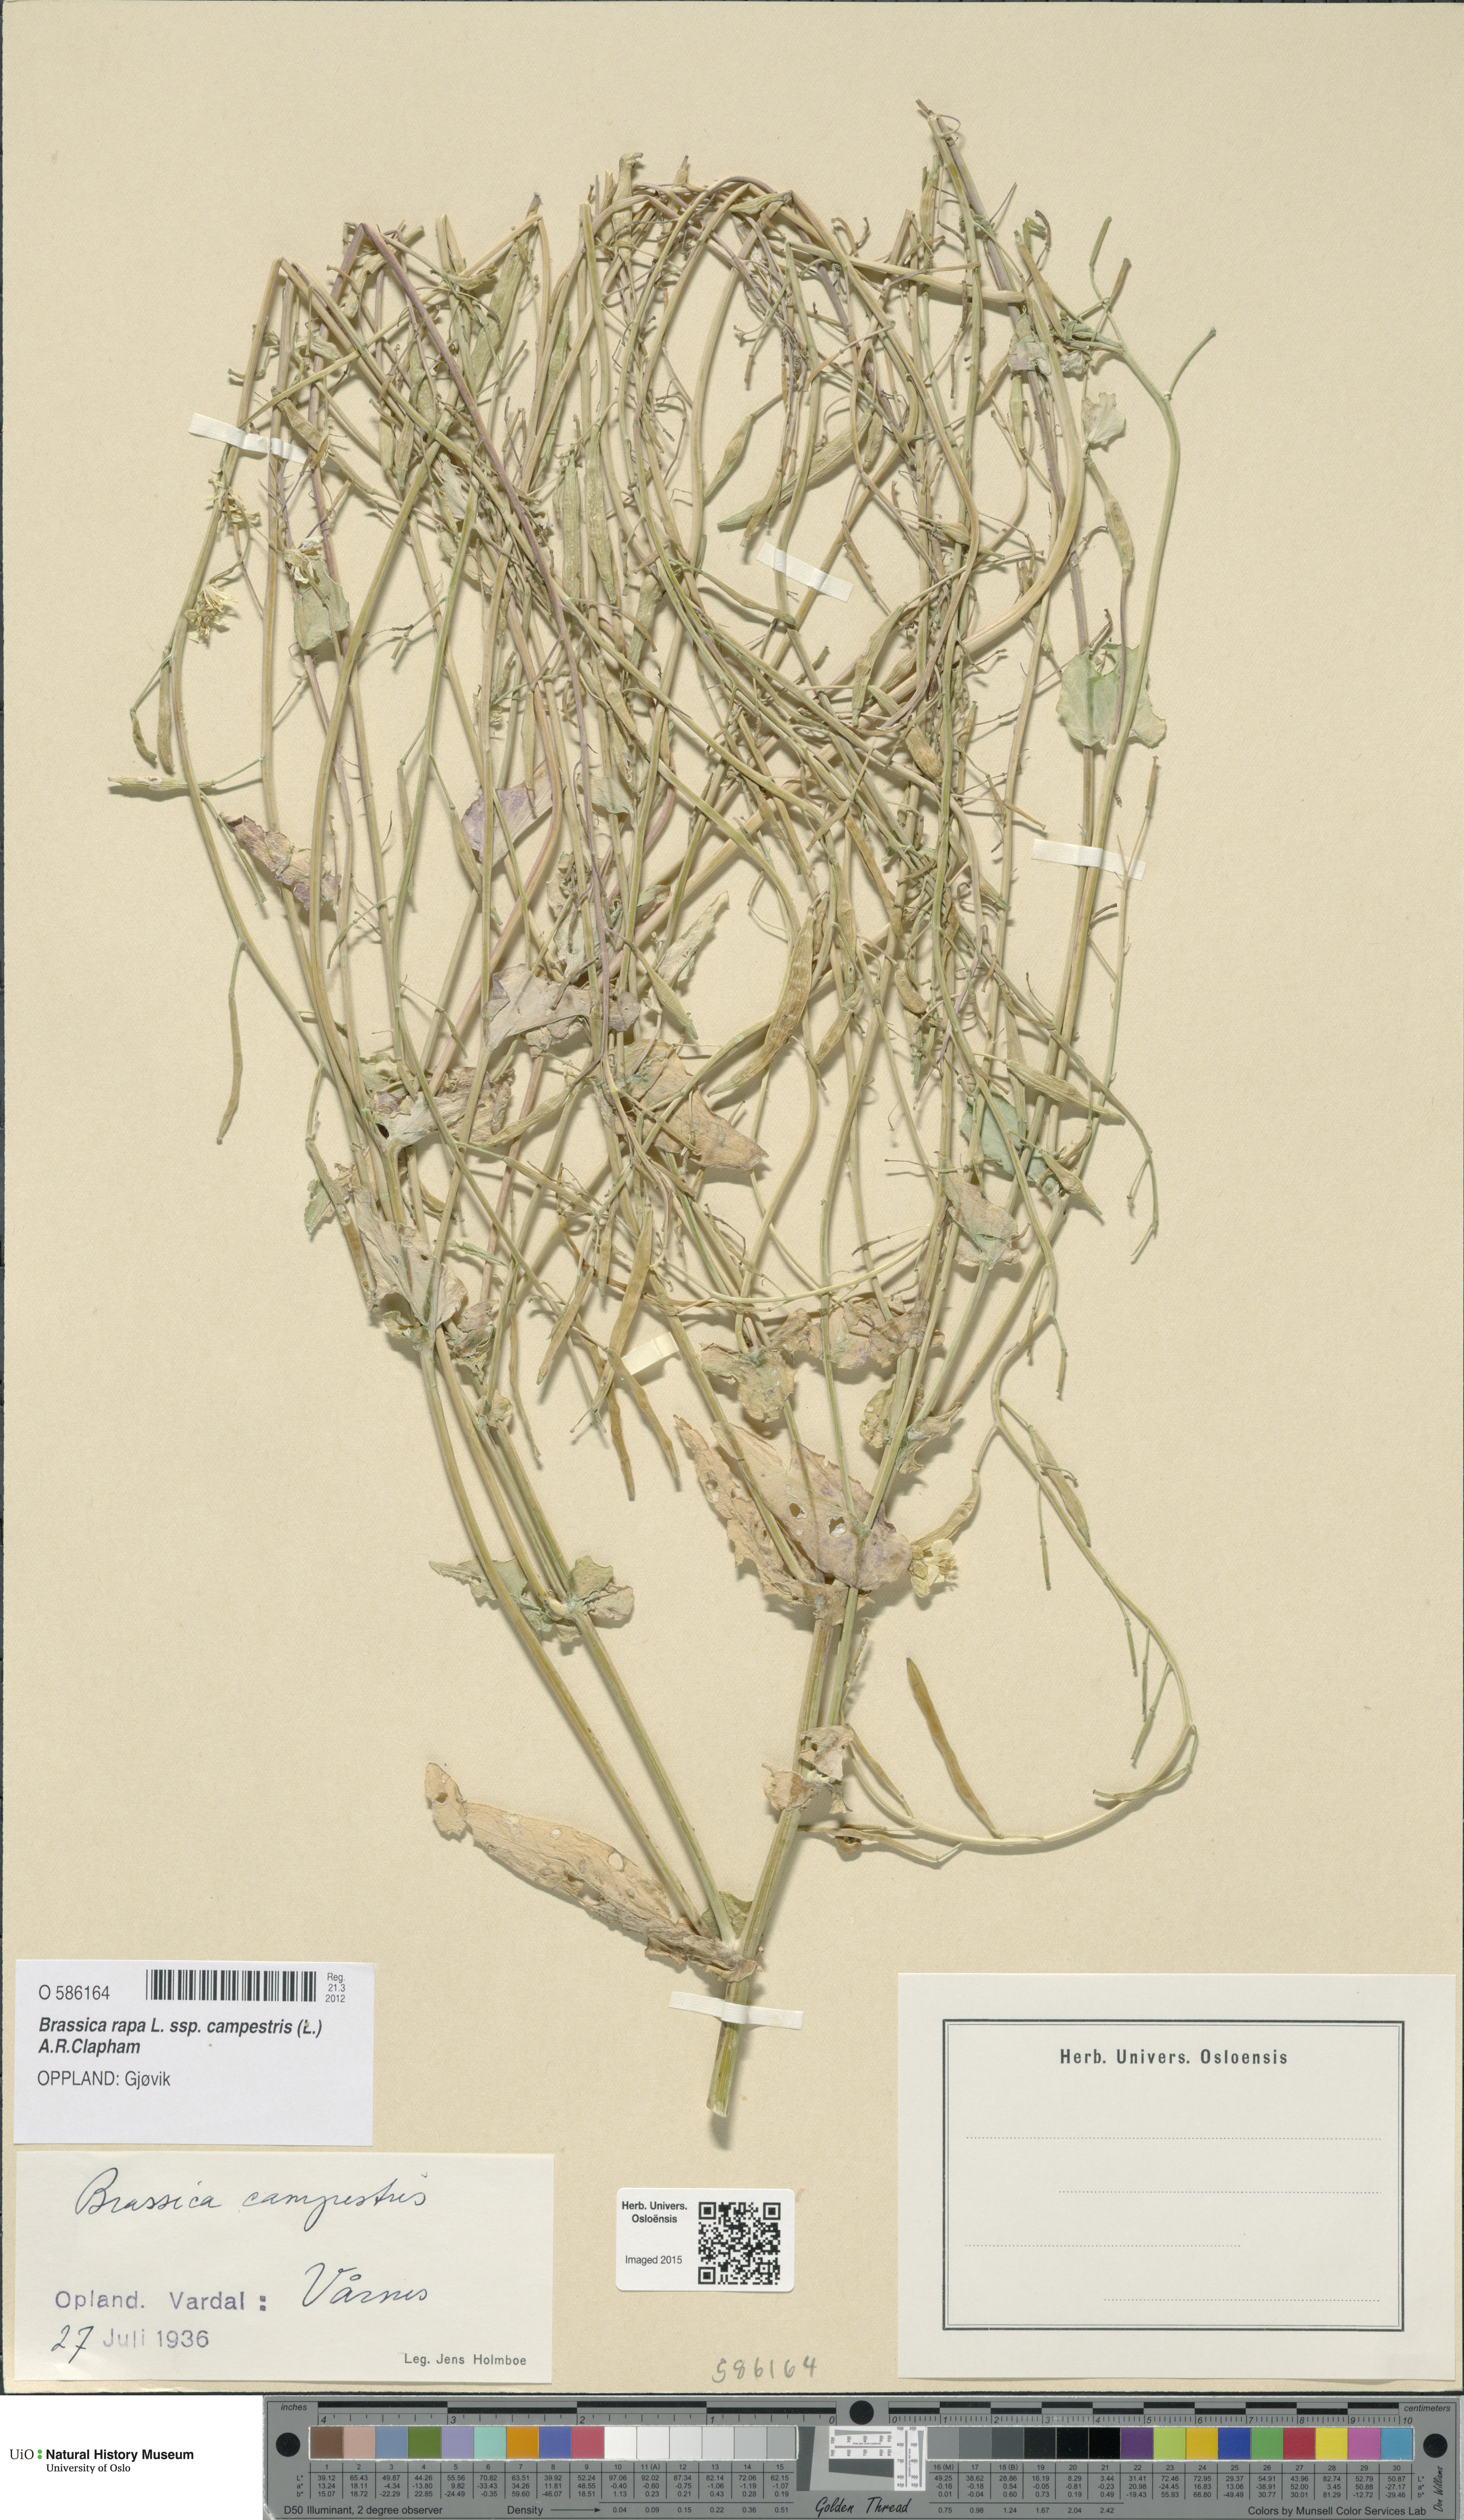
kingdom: Plantae
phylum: Tracheophyta
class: Magnoliopsida
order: Brassicales
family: Brassicaceae
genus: Brassica
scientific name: Brassica rapa
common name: Field mustard
